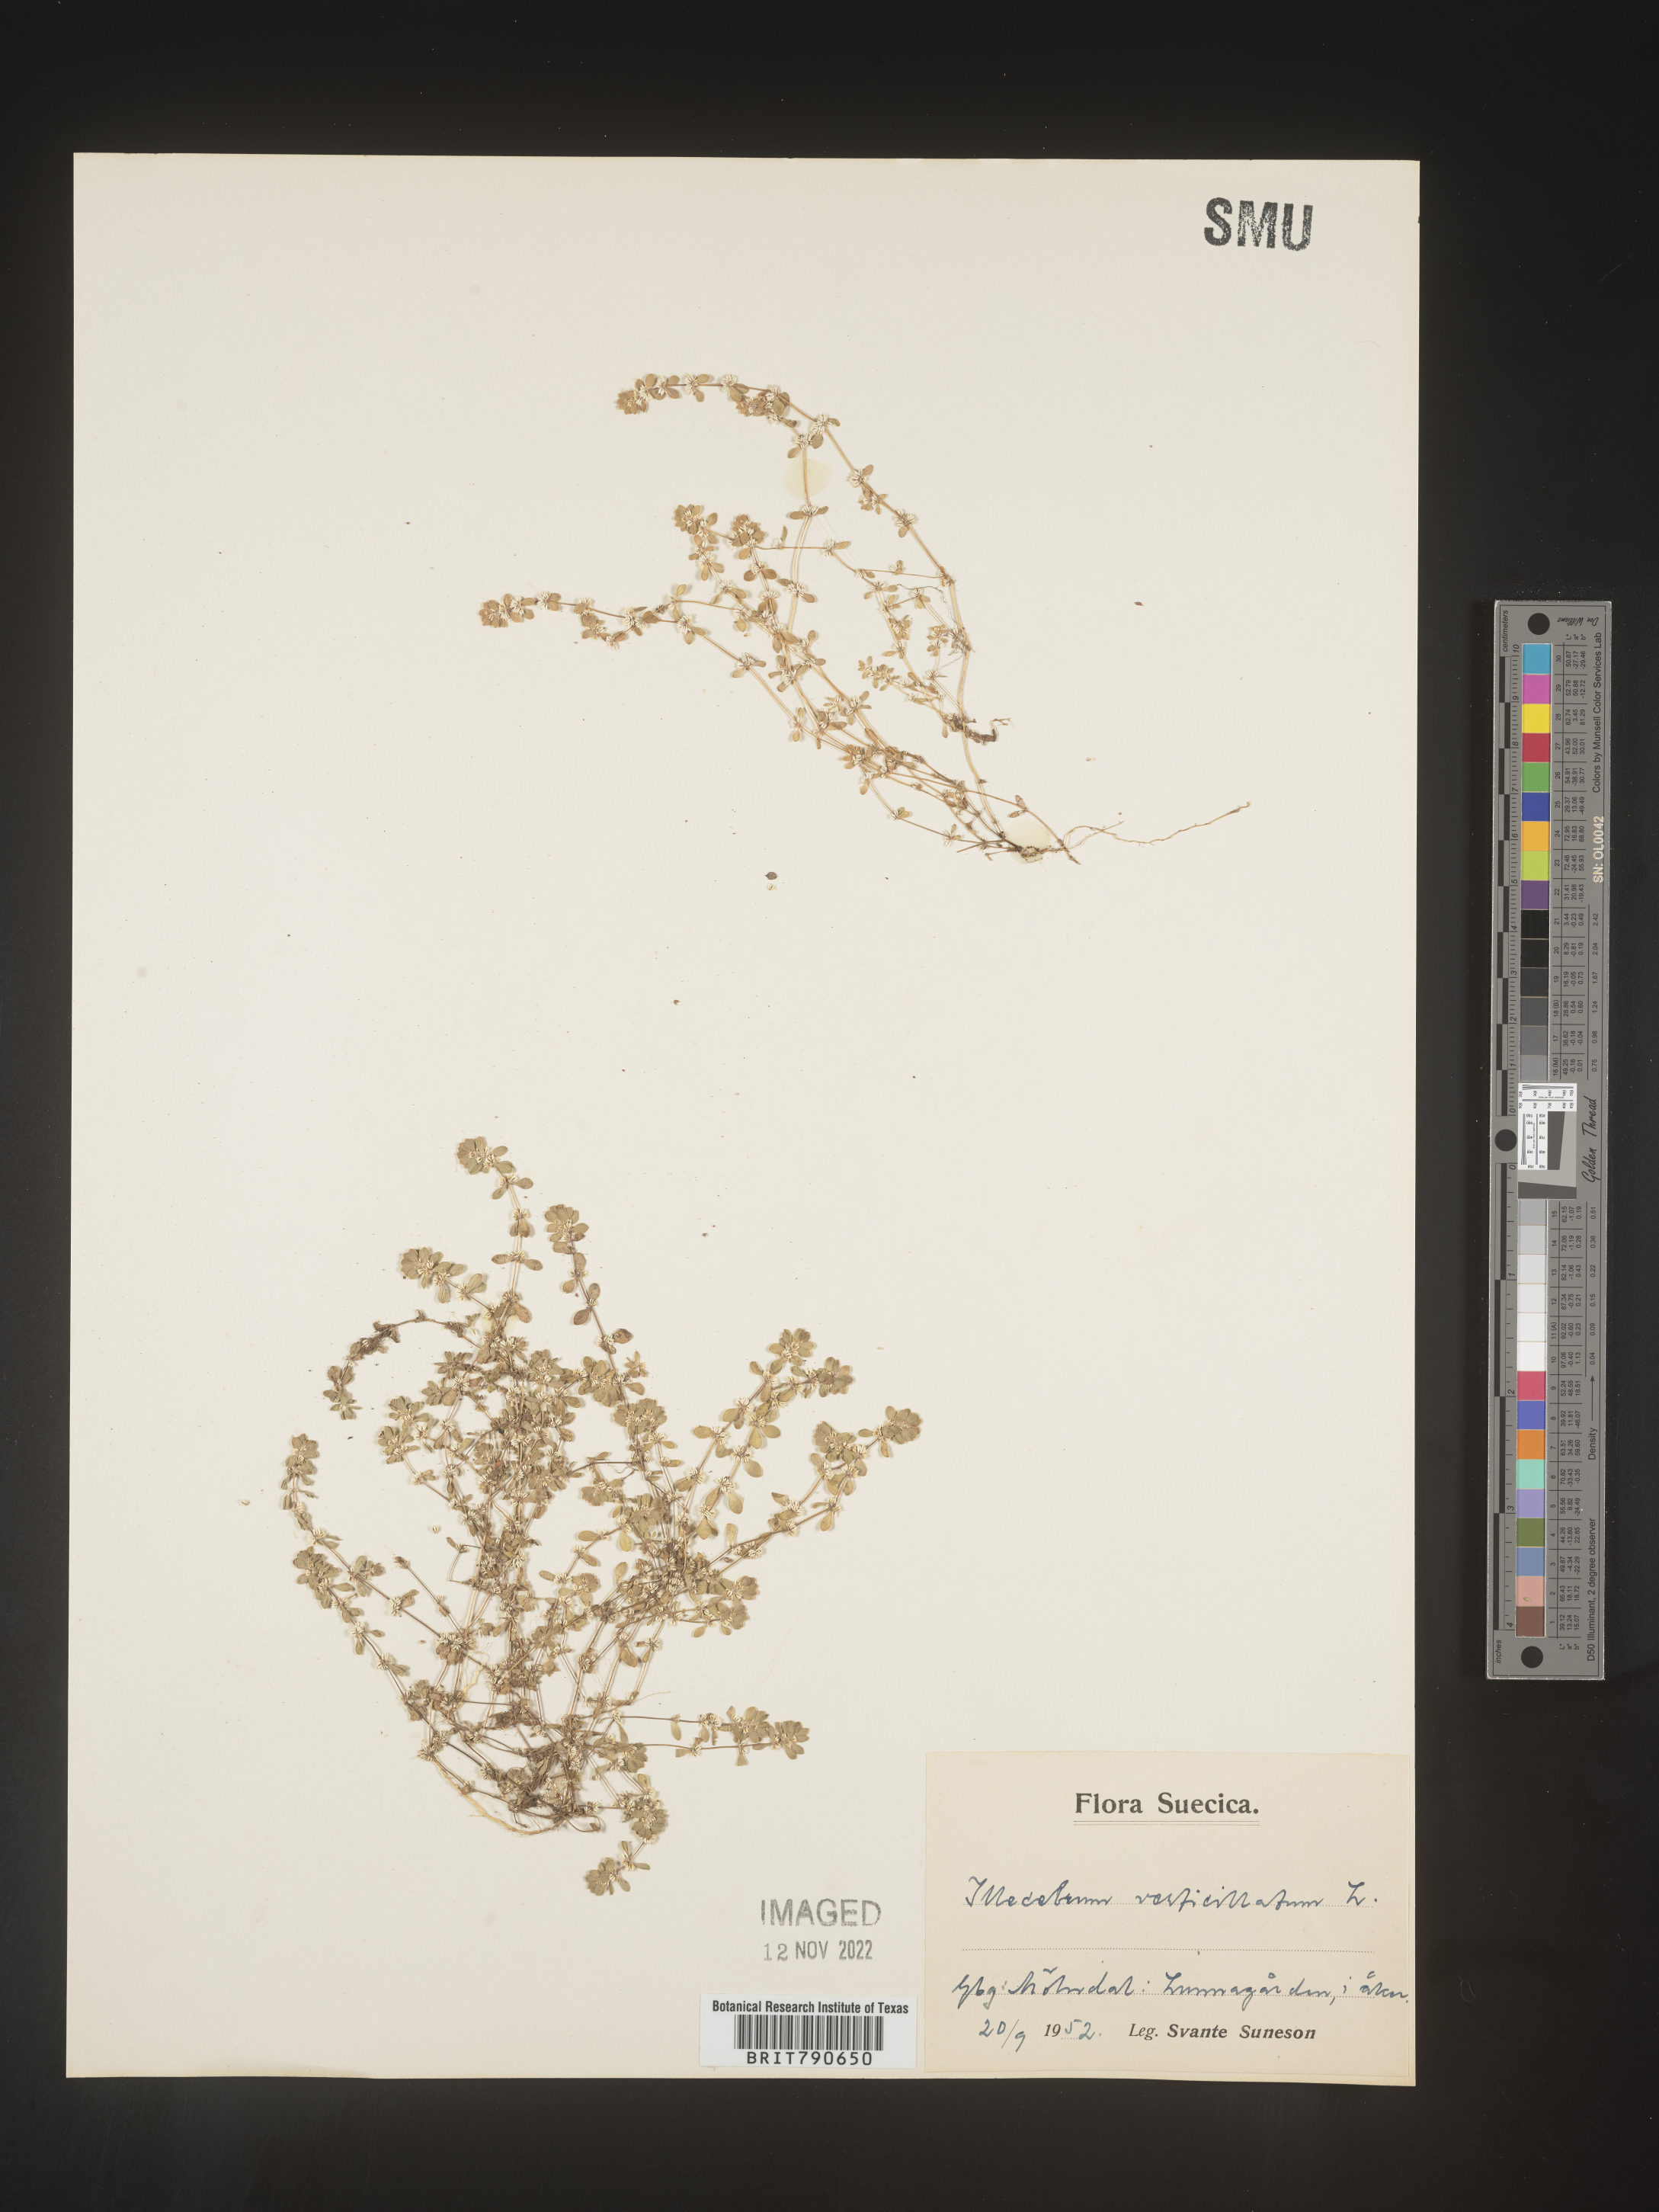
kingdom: Plantae
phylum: Tracheophyta
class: Magnoliopsida
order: Caryophyllales
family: Caryophyllaceae
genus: Illecebrum
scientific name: Illecebrum
